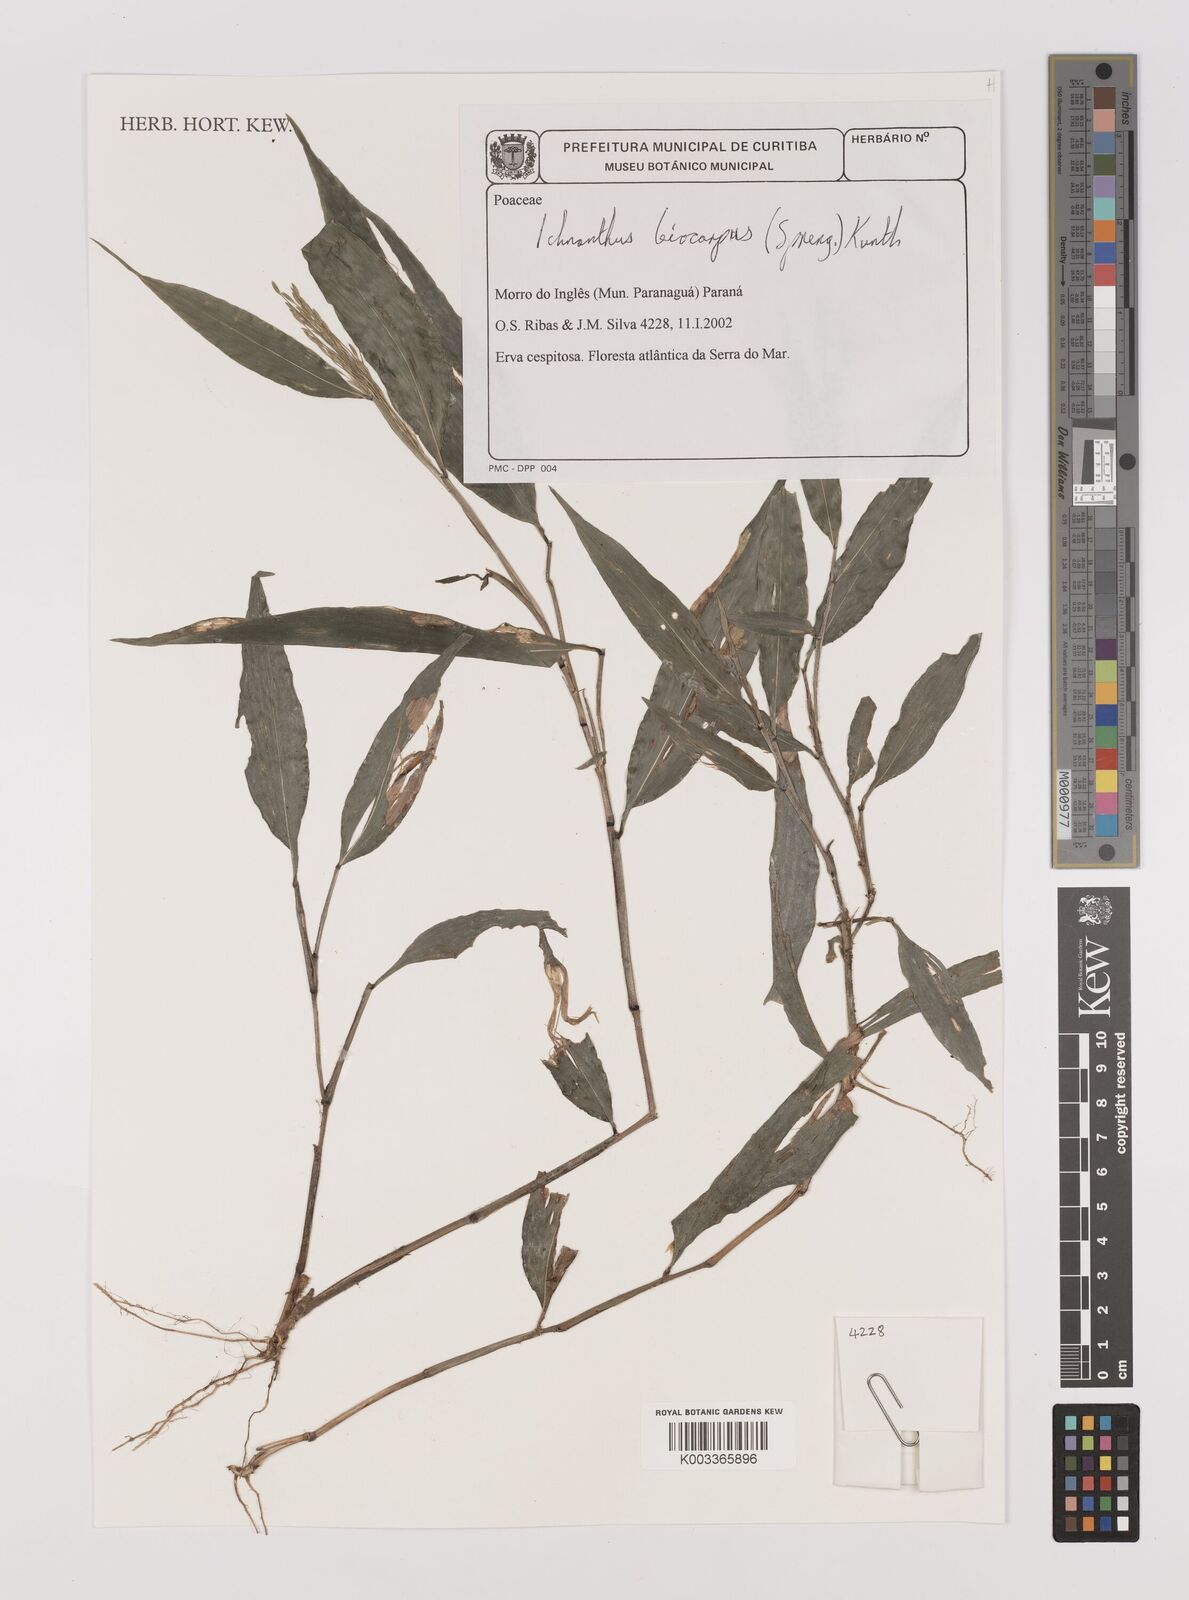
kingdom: Plantae
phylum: Tracheophyta
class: Liliopsida
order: Poales
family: Poaceae
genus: Ichnanthus
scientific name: Ichnanthus leiocarpus
